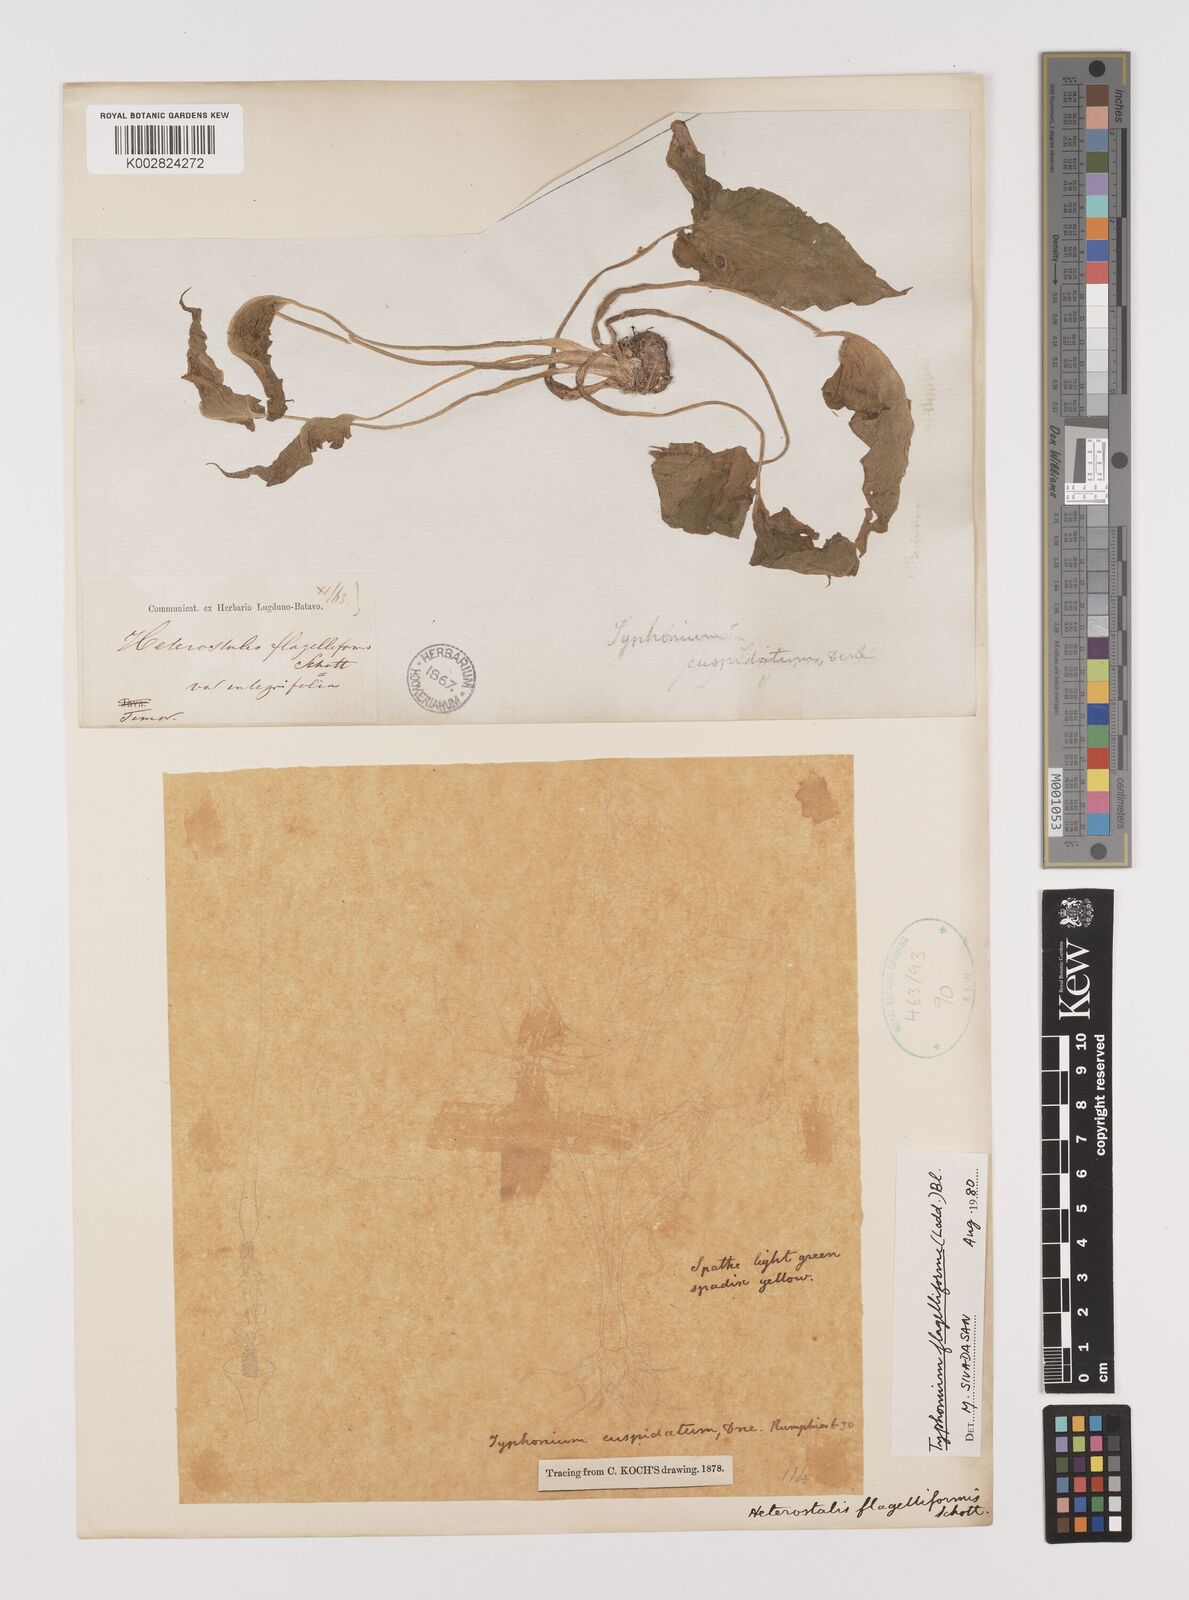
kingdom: Plantae
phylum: Tracheophyta
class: Liliopsida
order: Alismatales
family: Araceae
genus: Typhonium
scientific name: Typhonium
